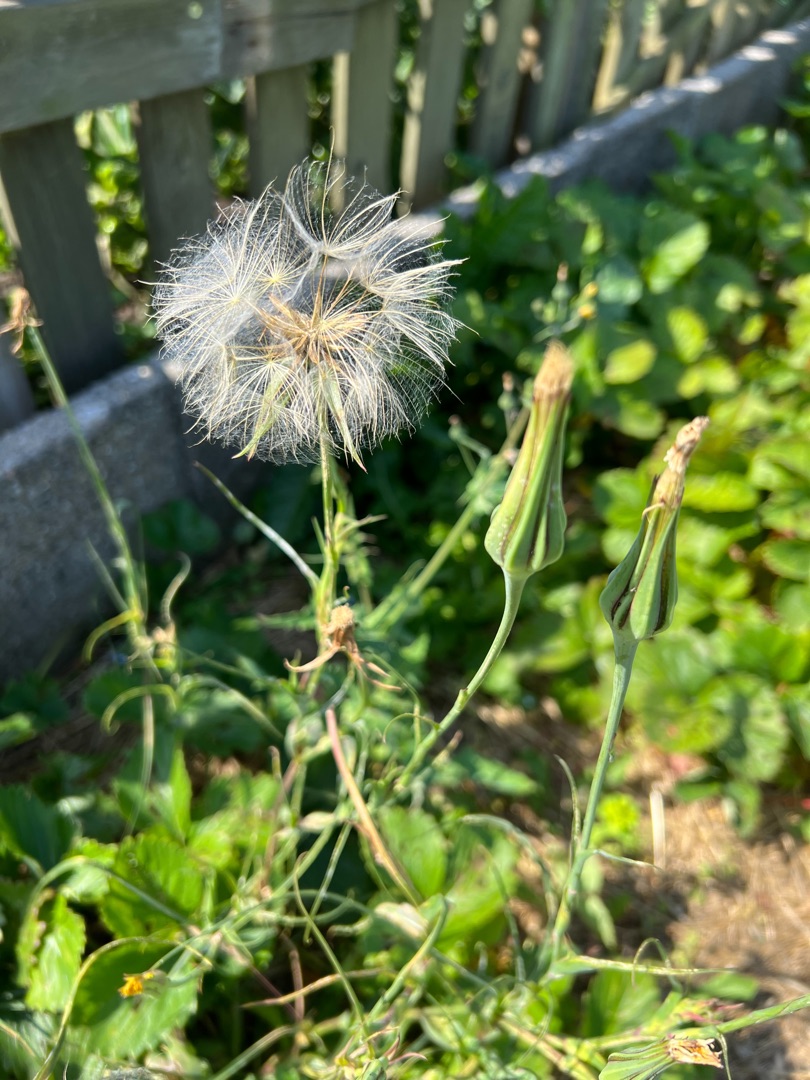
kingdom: Plantae
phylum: Tracheophyta
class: Magnoliopsida
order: Asterales
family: Asteraceae
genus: Tragopogon
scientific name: Tragopogon pratensis
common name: Gedeskæg
